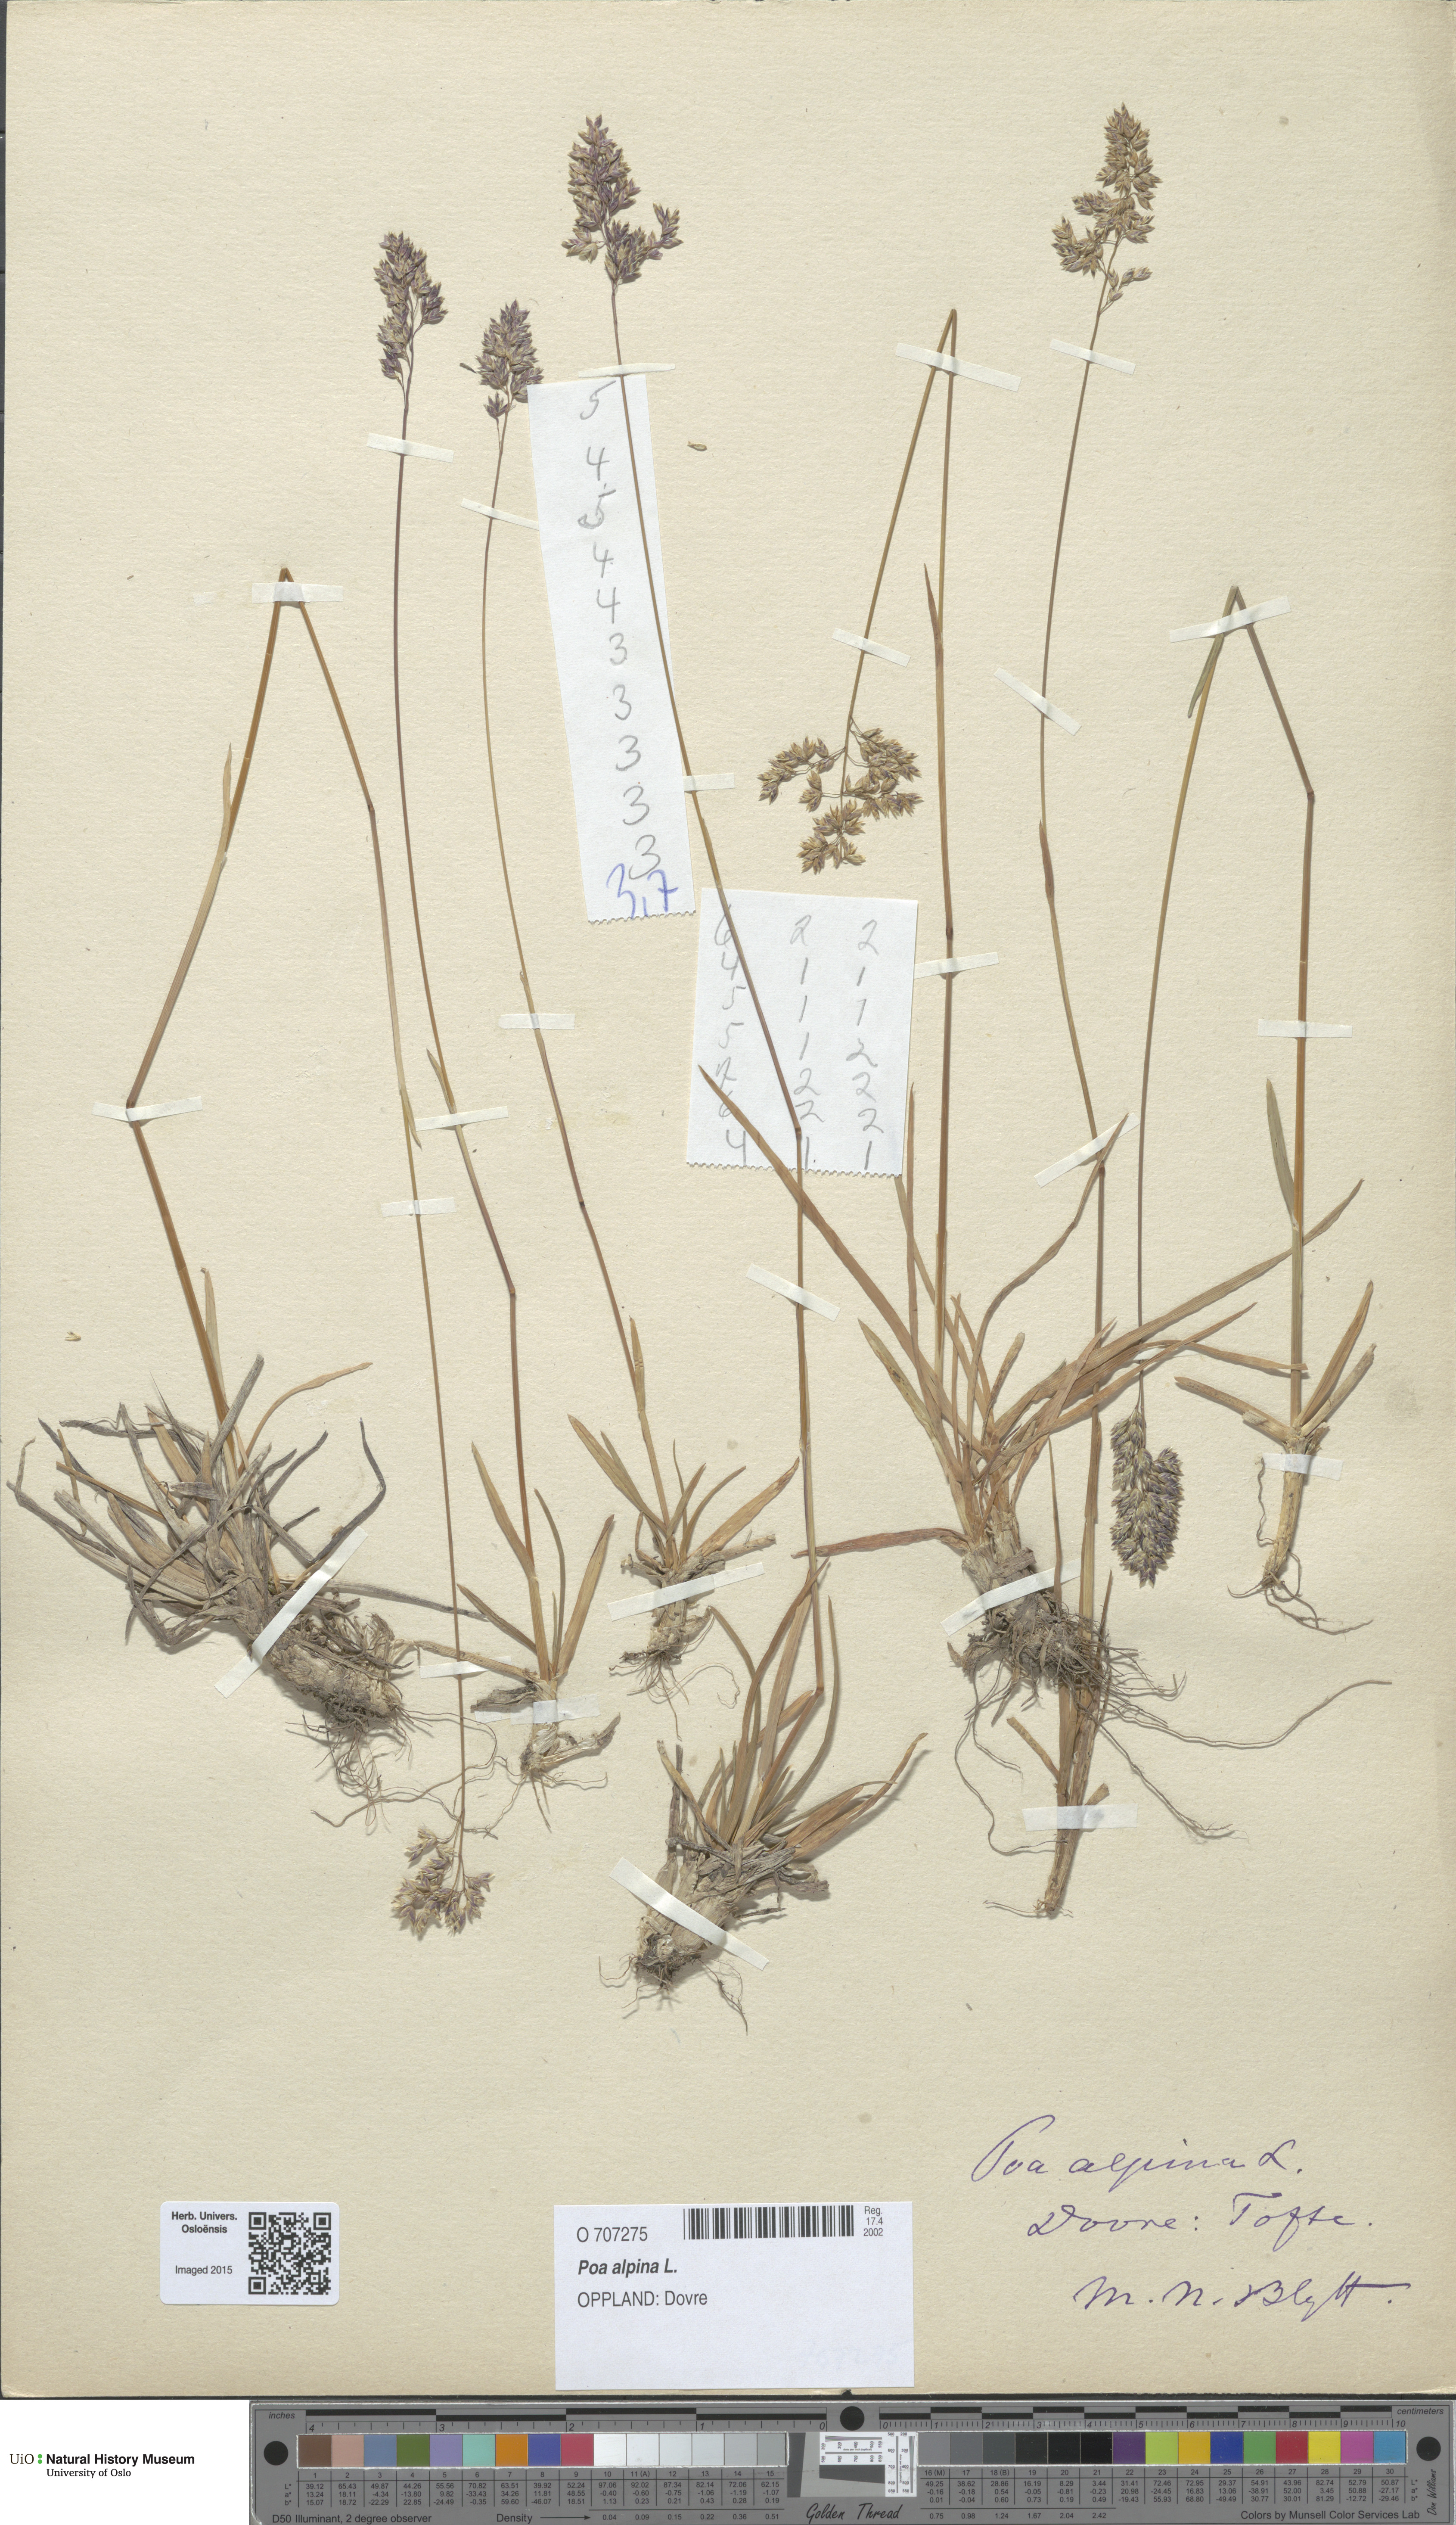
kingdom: Plantae
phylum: Tracheophyta
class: Liliopsida
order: Poales
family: Poaceae
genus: Poa
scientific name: Poa alpina
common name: Alpine bluegrass
